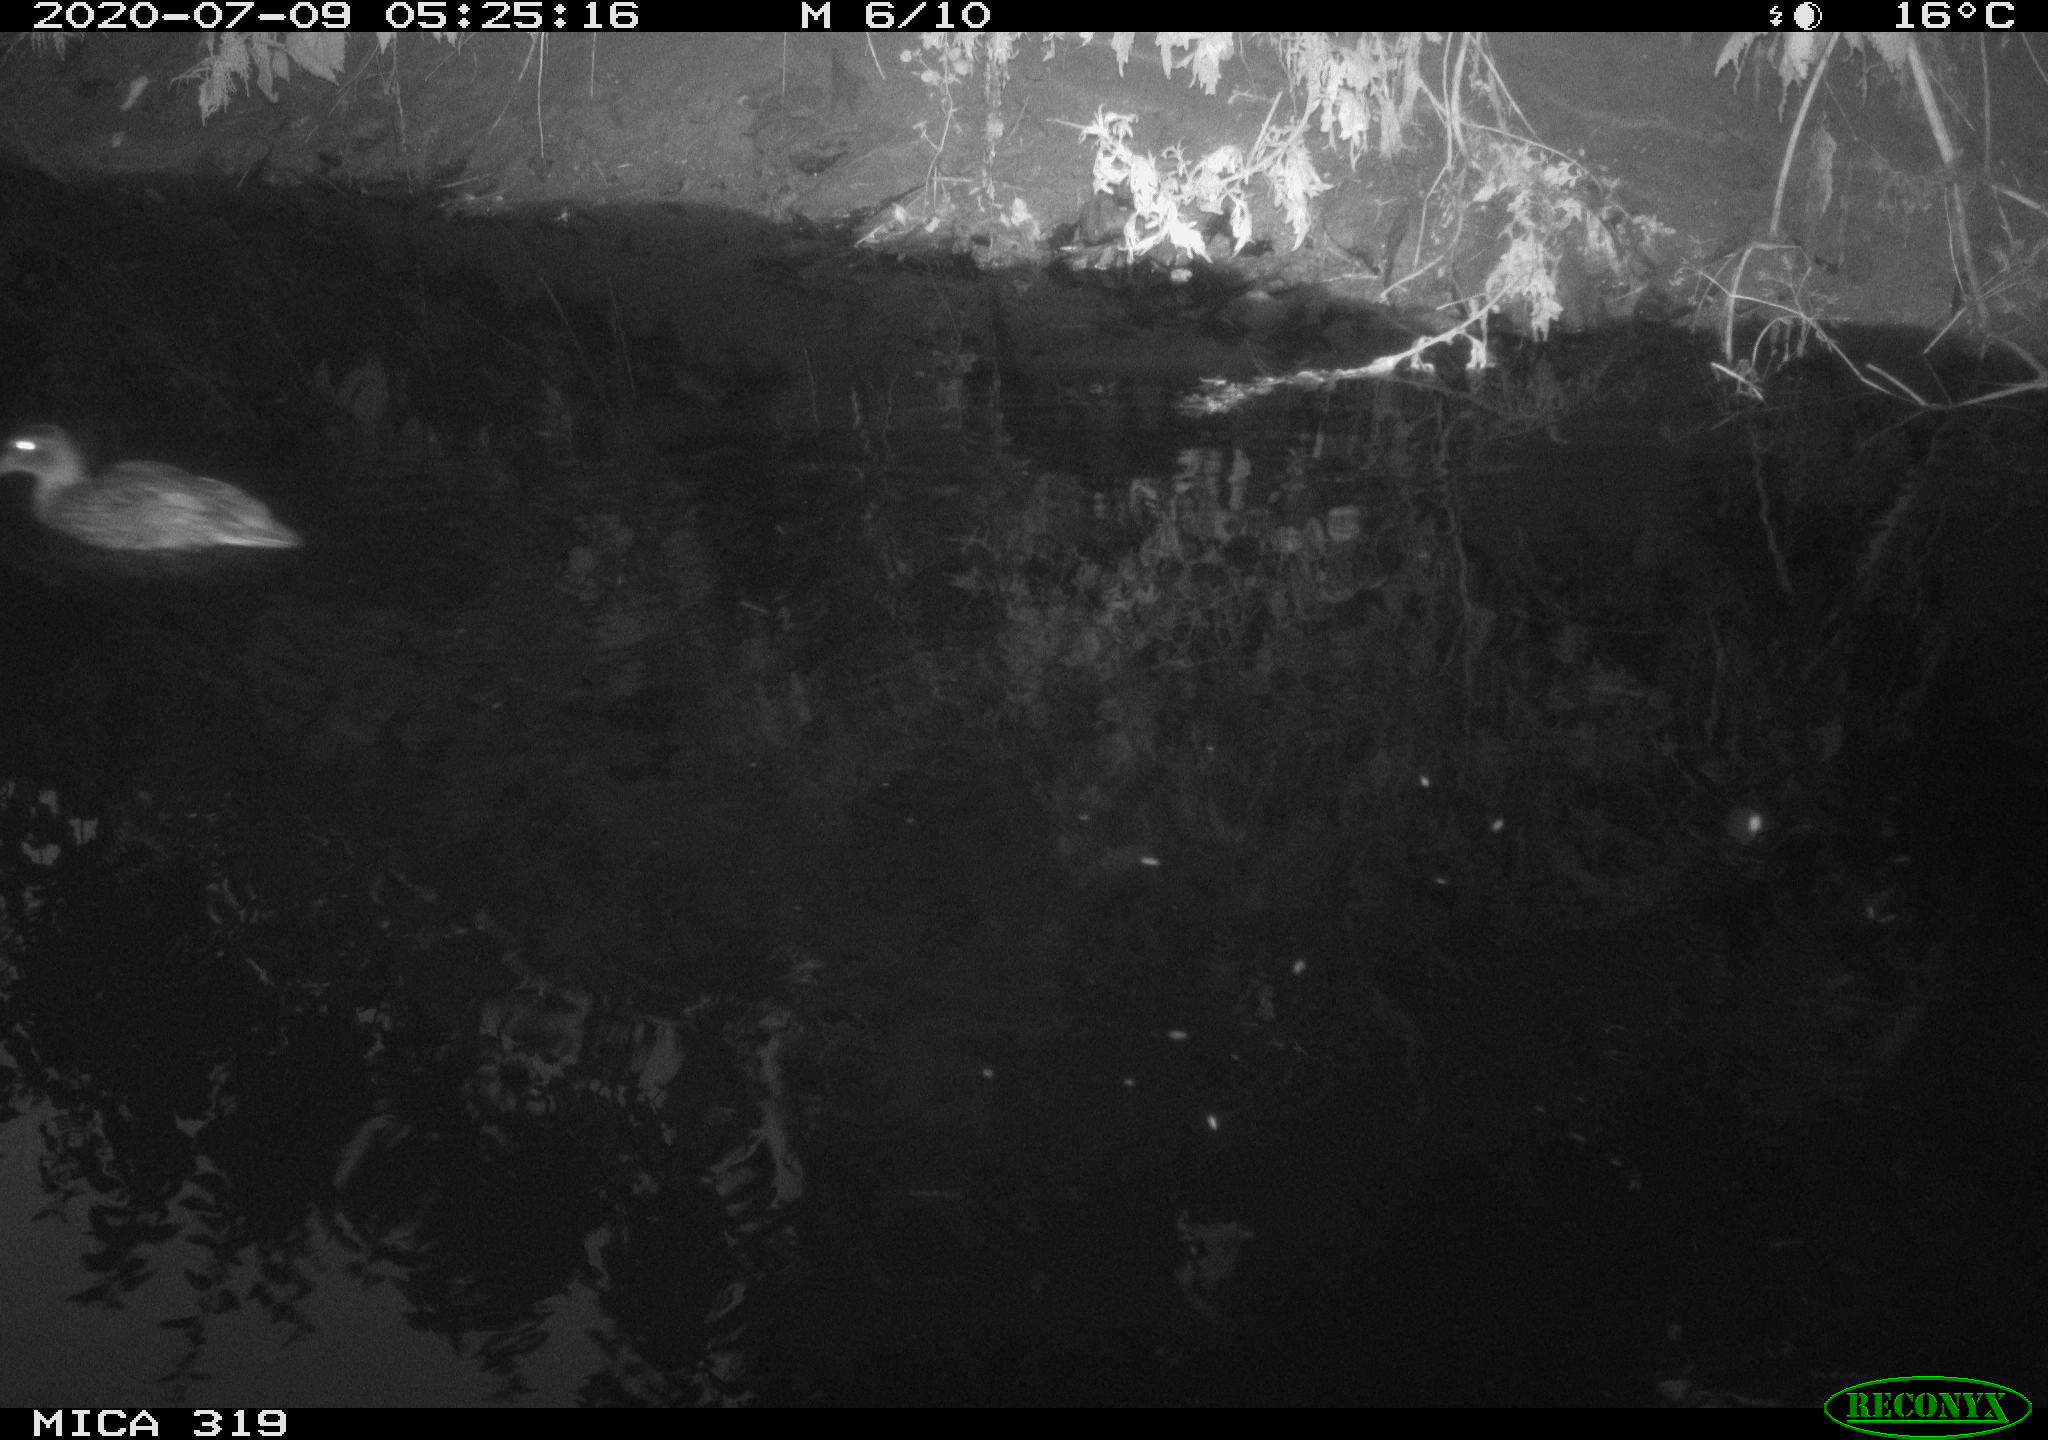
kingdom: Animalia
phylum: Chordata
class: Aves
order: Anseriformes
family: Anatidae
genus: Anas
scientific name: Anas platyrhynchos
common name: Mallard
